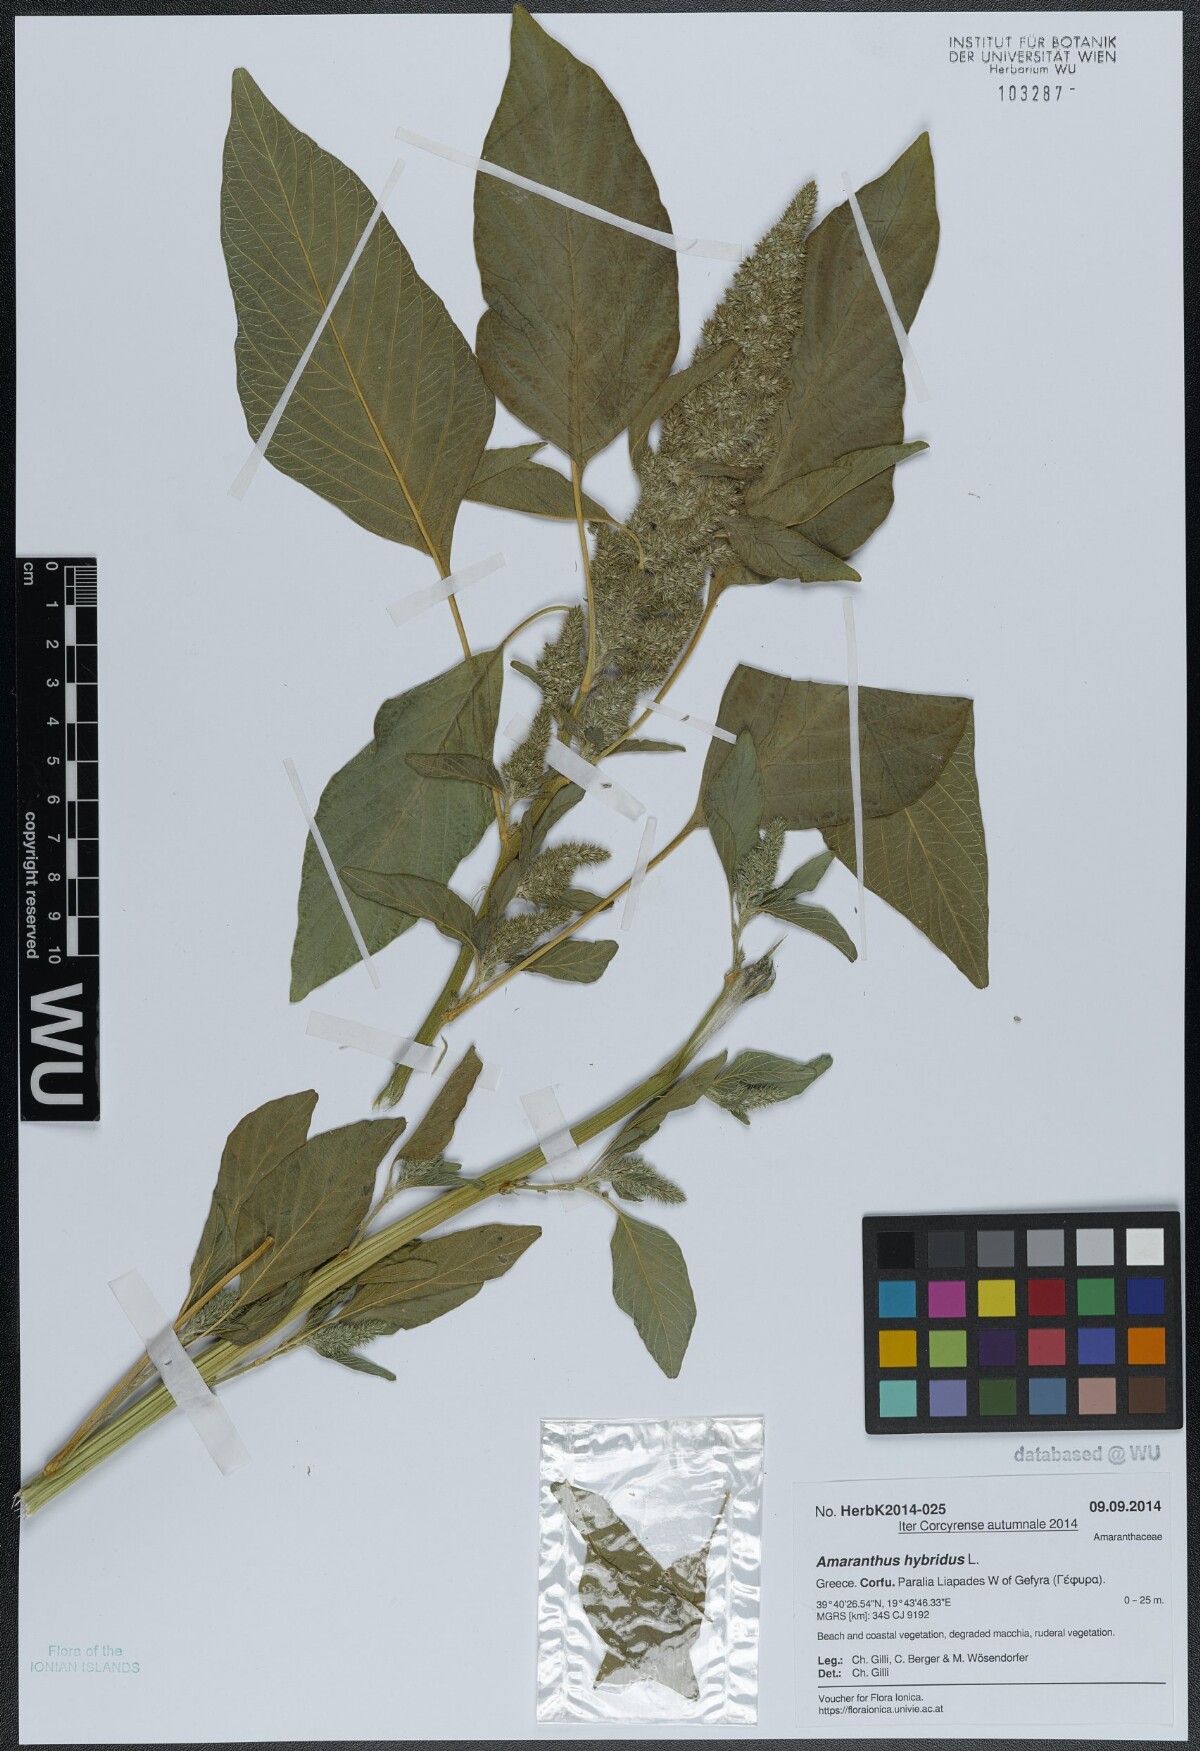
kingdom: Plantae
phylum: Tracheophyta
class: Magnoliopsida
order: Caryophyllales
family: Amaranthaceae
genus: Amaranthus
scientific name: Amaranthus hybridus
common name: Green amaranth
